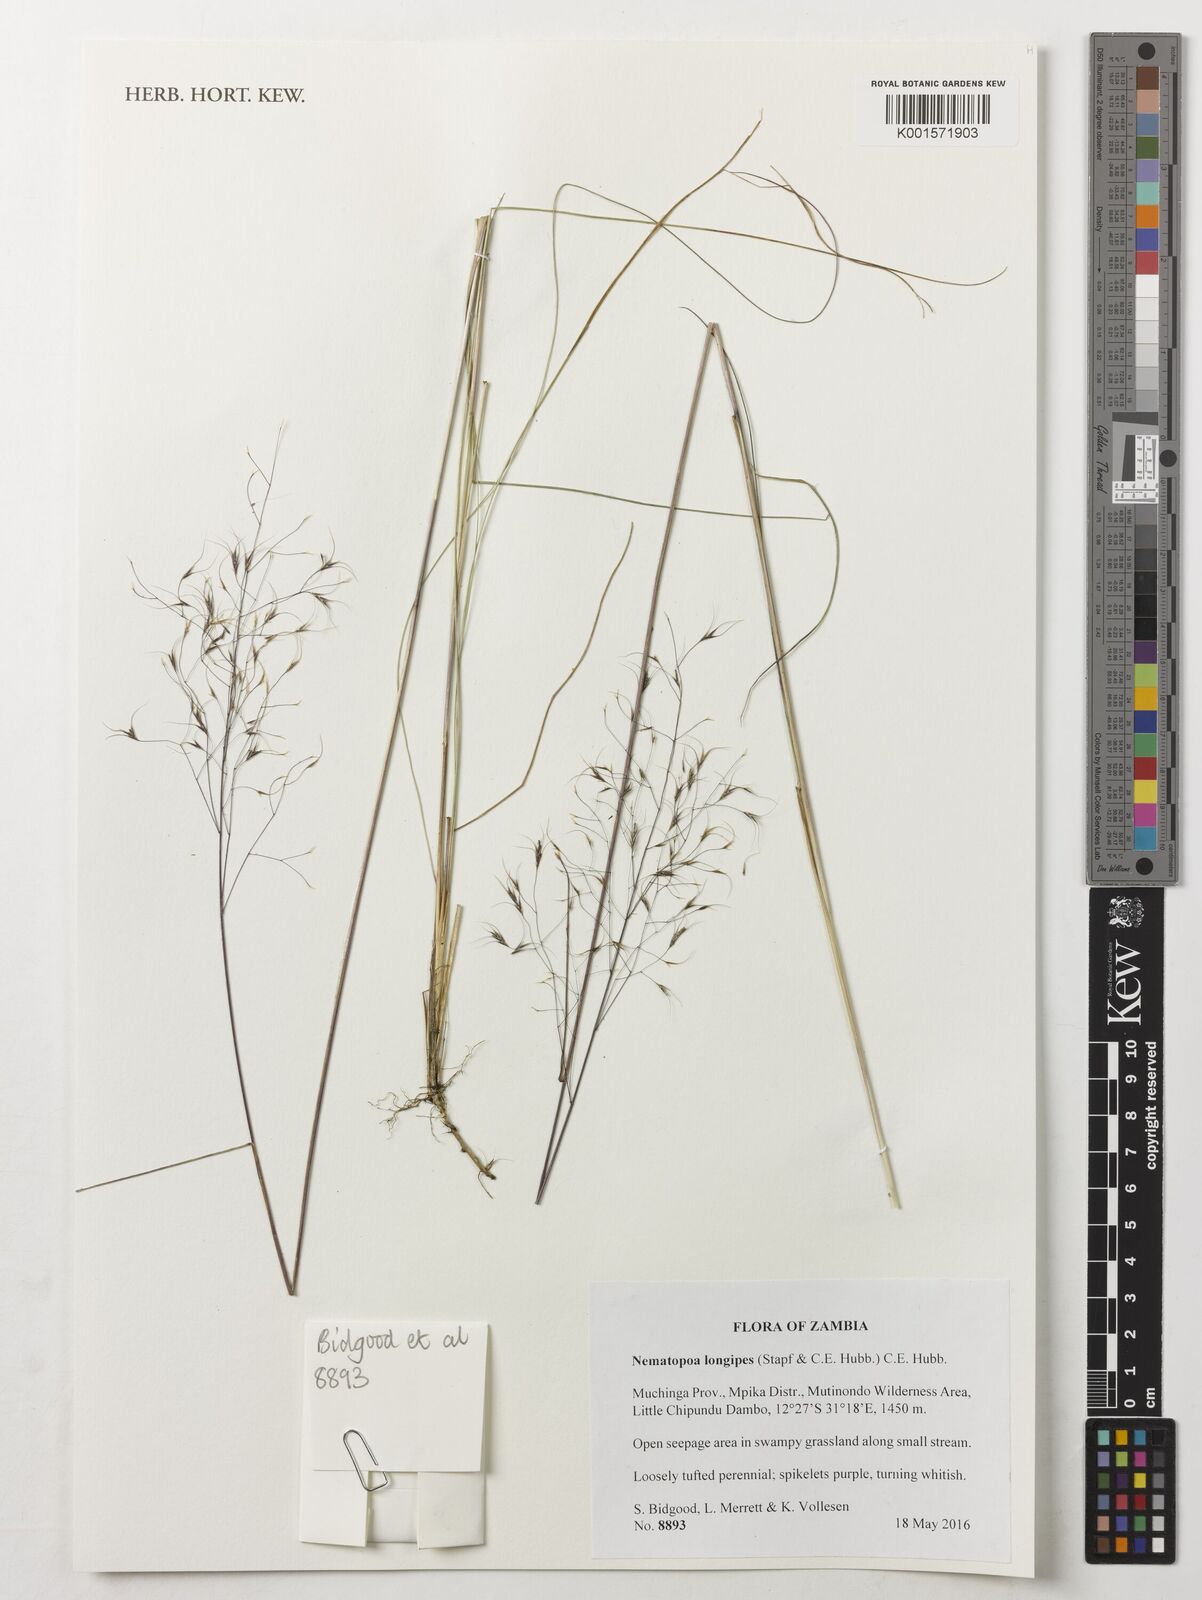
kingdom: Plantae
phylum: Tracheophyta
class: Liliopsida
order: Poales
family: Poaceae
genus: Nematopoa
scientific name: Nematopoa longipes
